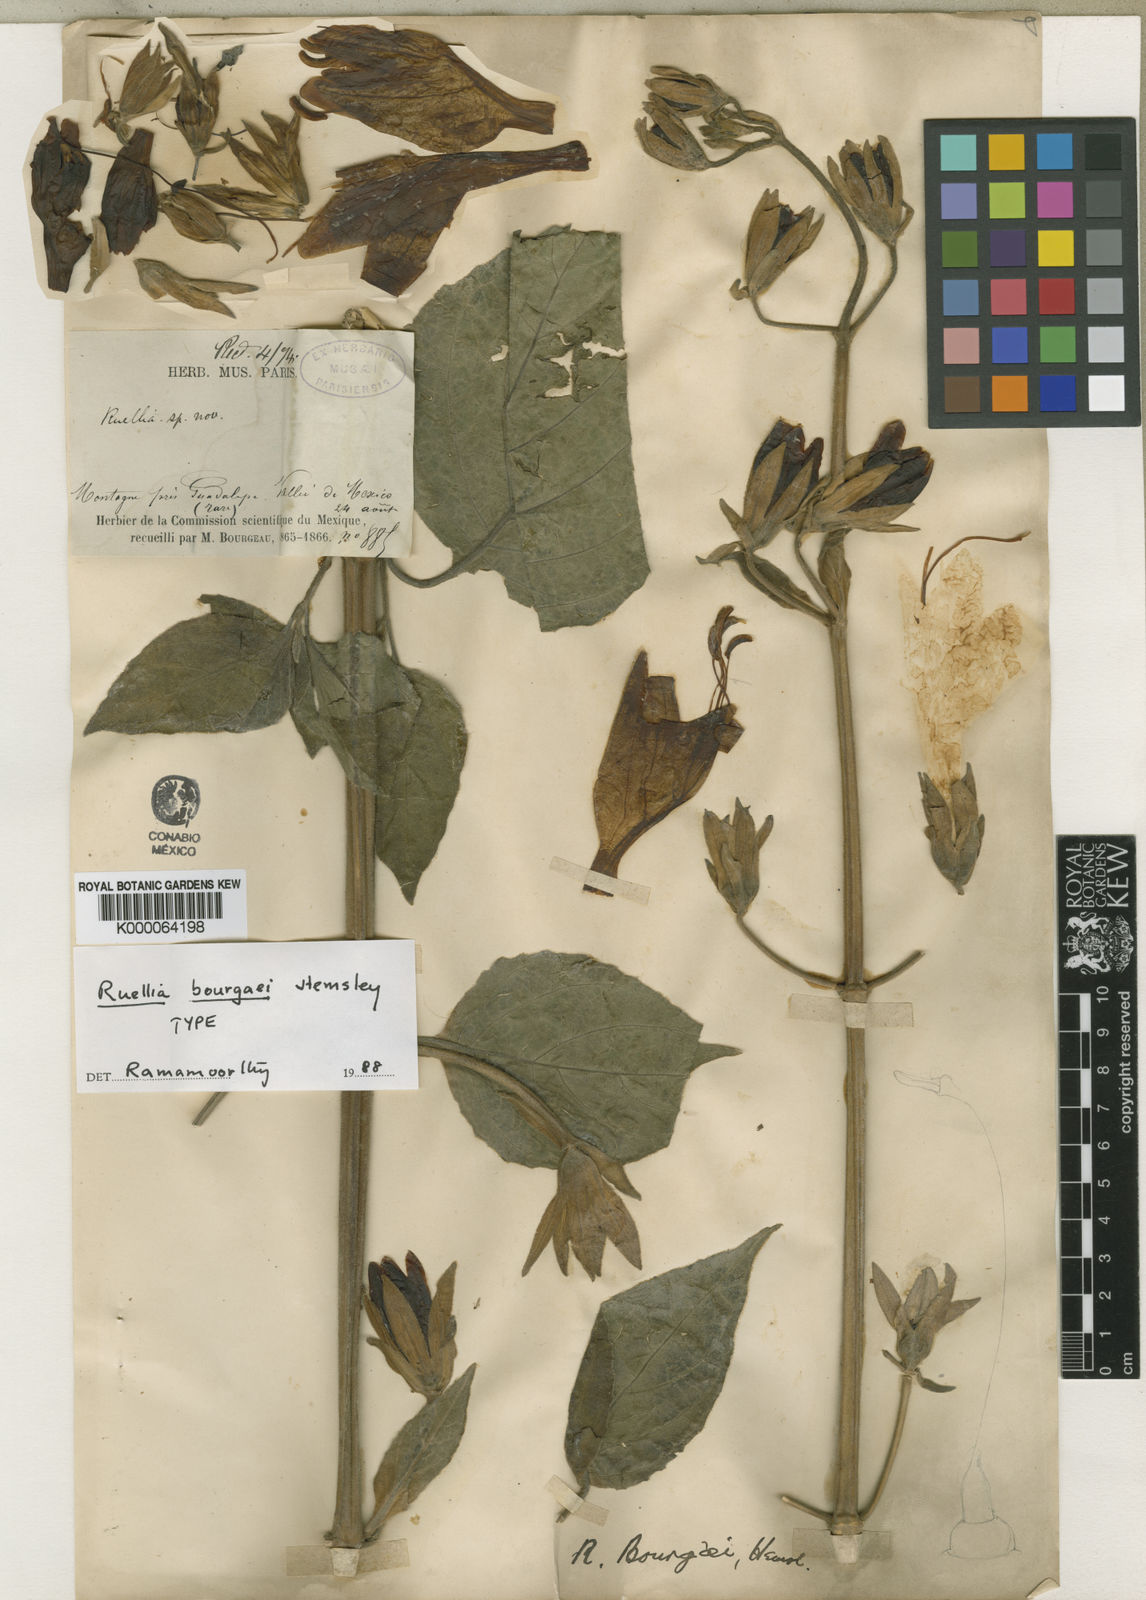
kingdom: Plantae
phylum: Tracheophyta
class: Magnoliopsida
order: Lamiales
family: Acanthaceae
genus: Ruellia
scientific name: Ruellia bourgaei
